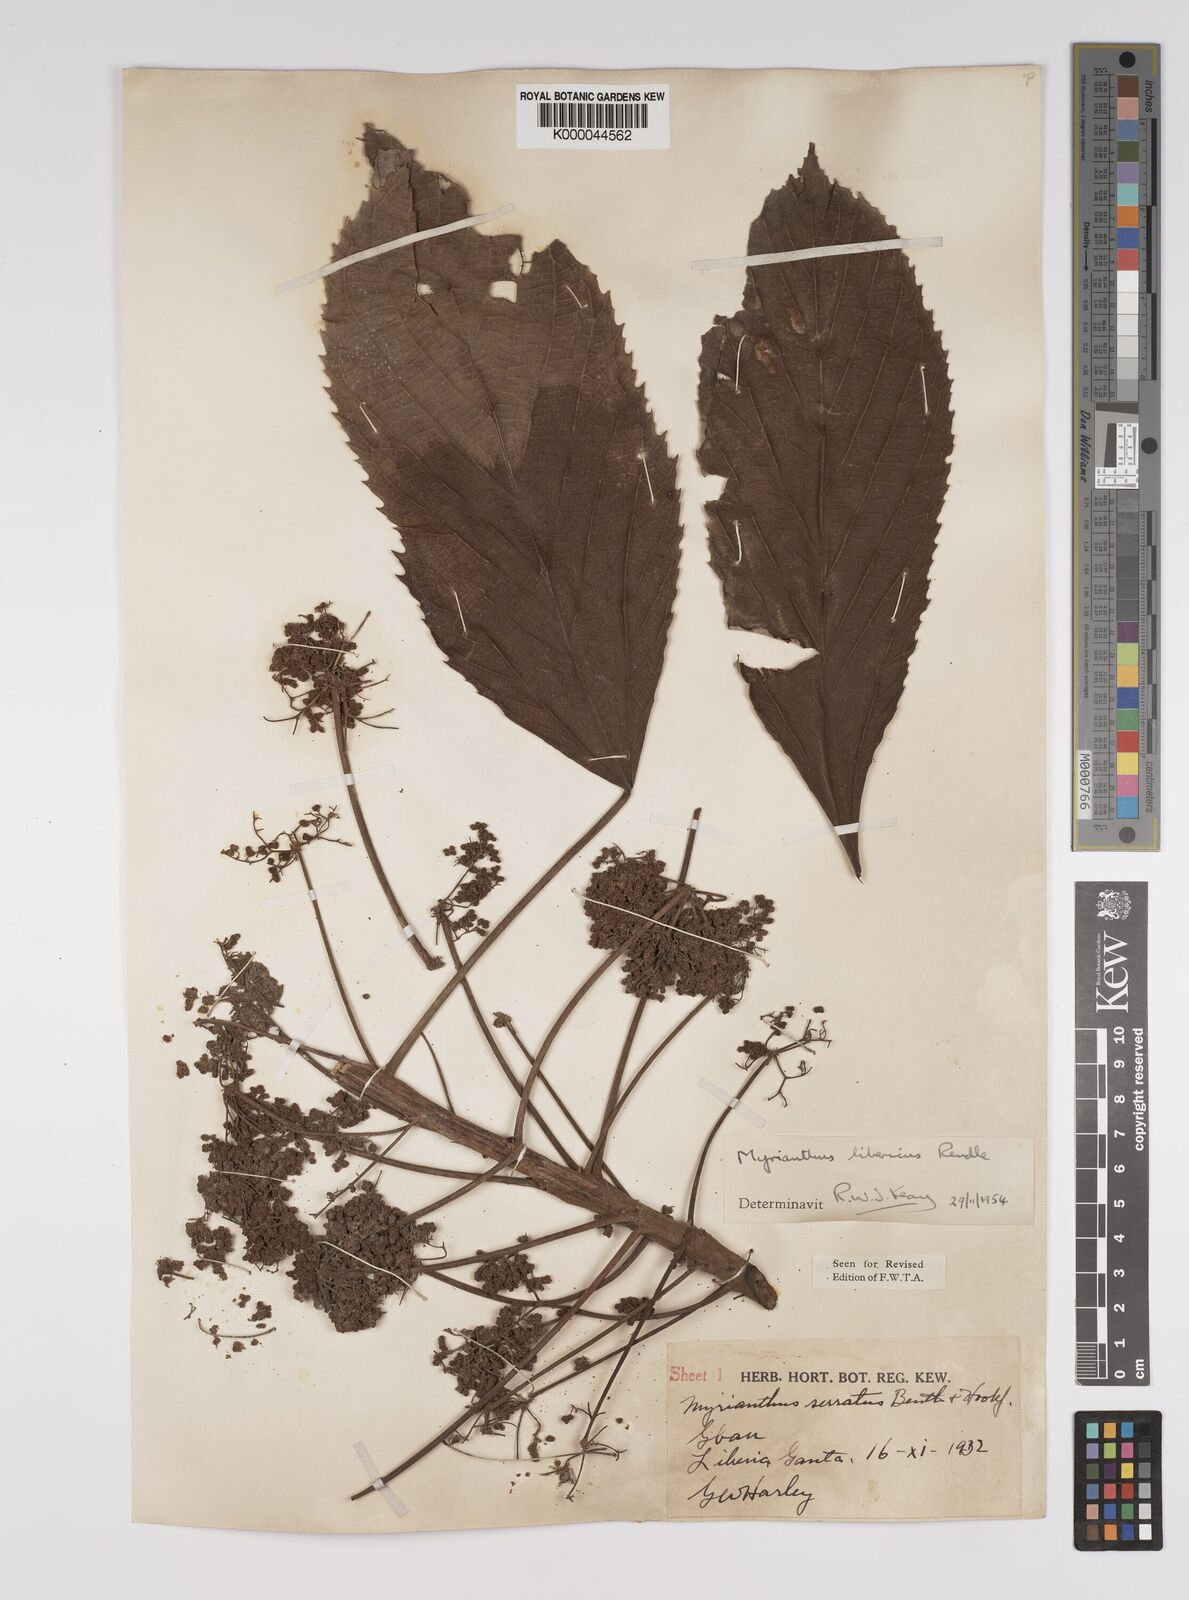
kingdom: Plantae
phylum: Tracheophyta
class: Magnoliopsida
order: Rosales
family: Urticaceae
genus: Myrianthus
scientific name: Myrianthus libericus
